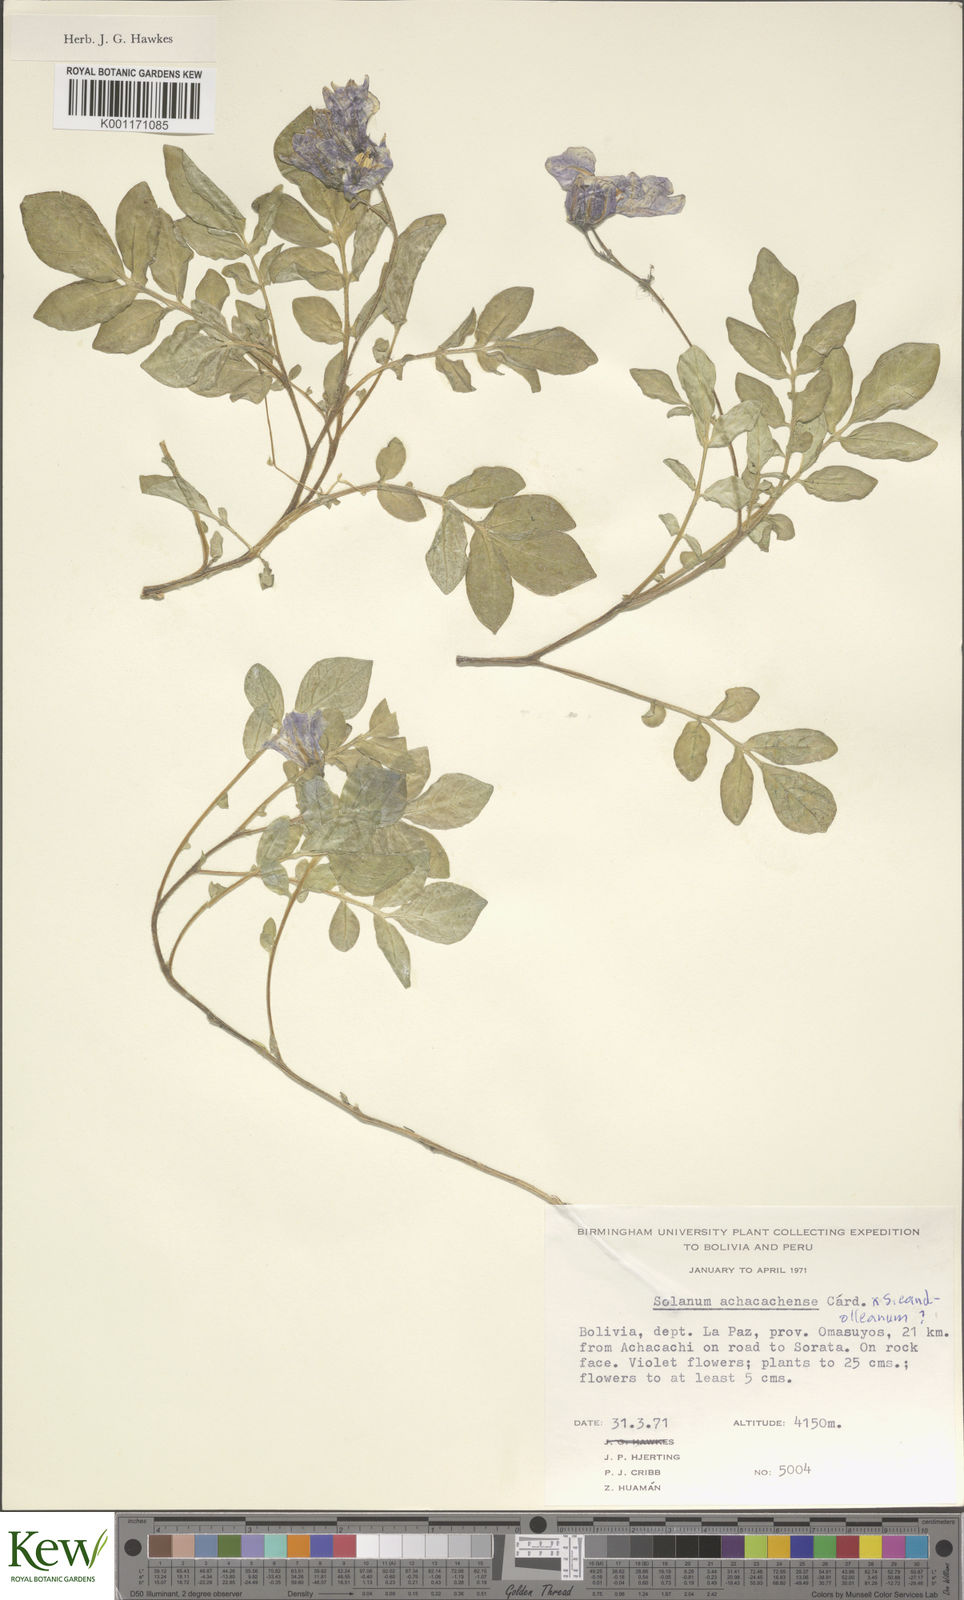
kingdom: Plantae
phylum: Tracheophyta
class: Magnoliopsida
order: Solanales
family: Solanaceae
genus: Solanum
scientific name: Solanum
